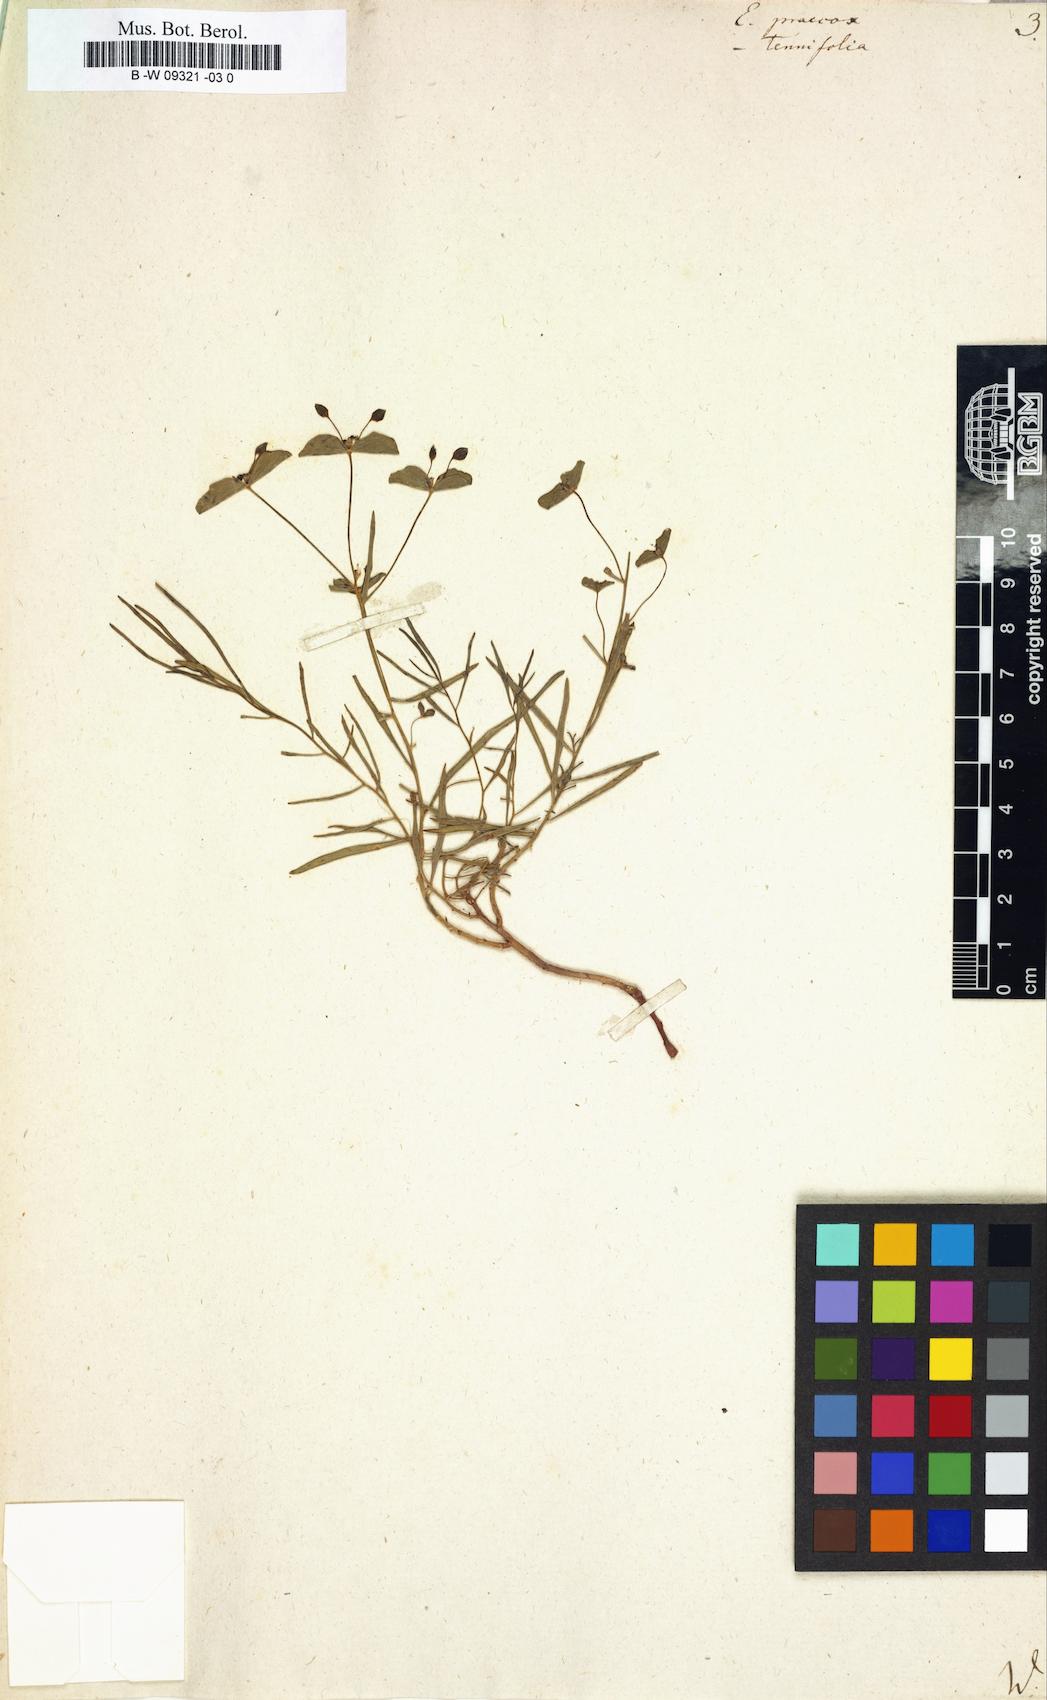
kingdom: Plantae
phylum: Tracheophyta
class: Magnoliopsida
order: Malpighiales
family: Euphorbiaceae
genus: Euphorbia
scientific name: Euphorbia astrachanica
